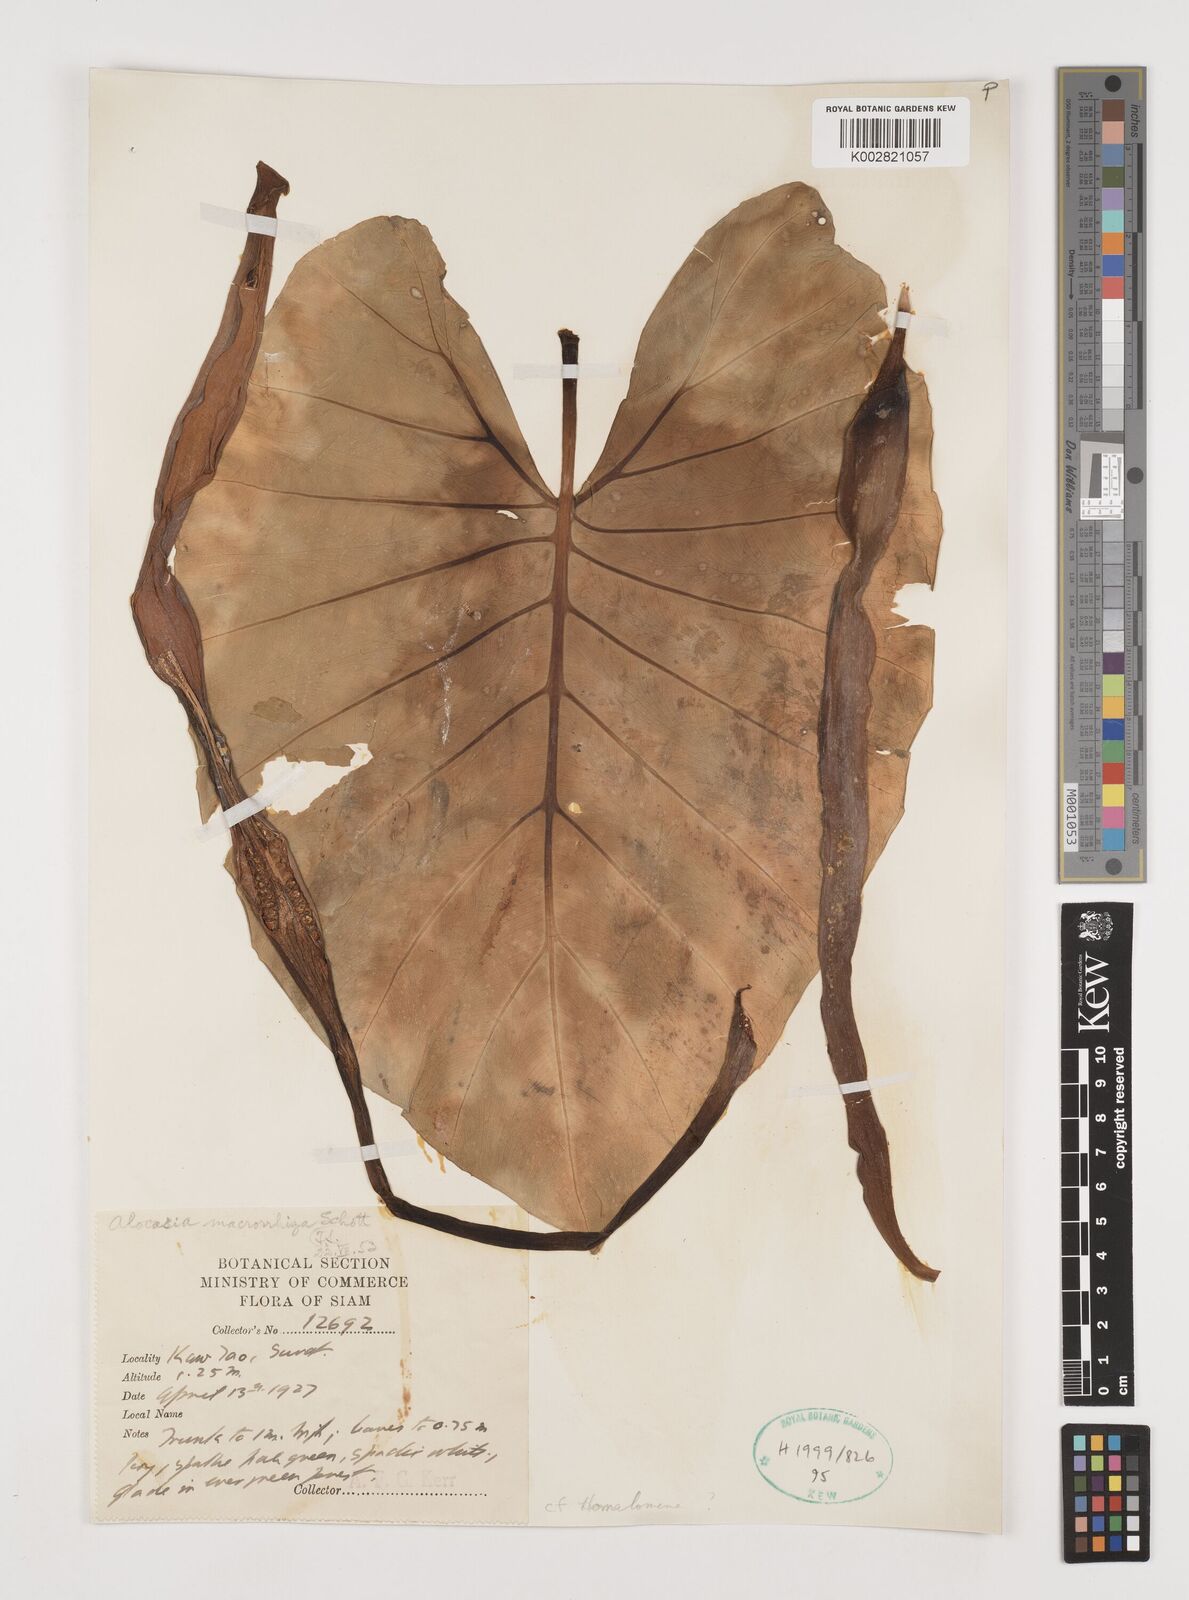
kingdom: Plantae
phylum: Tracheophyta
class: Liliopsida
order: Alismatales
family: Araceae
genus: Alocasia
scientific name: Alocasia macrorrhizos
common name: Giant taro
